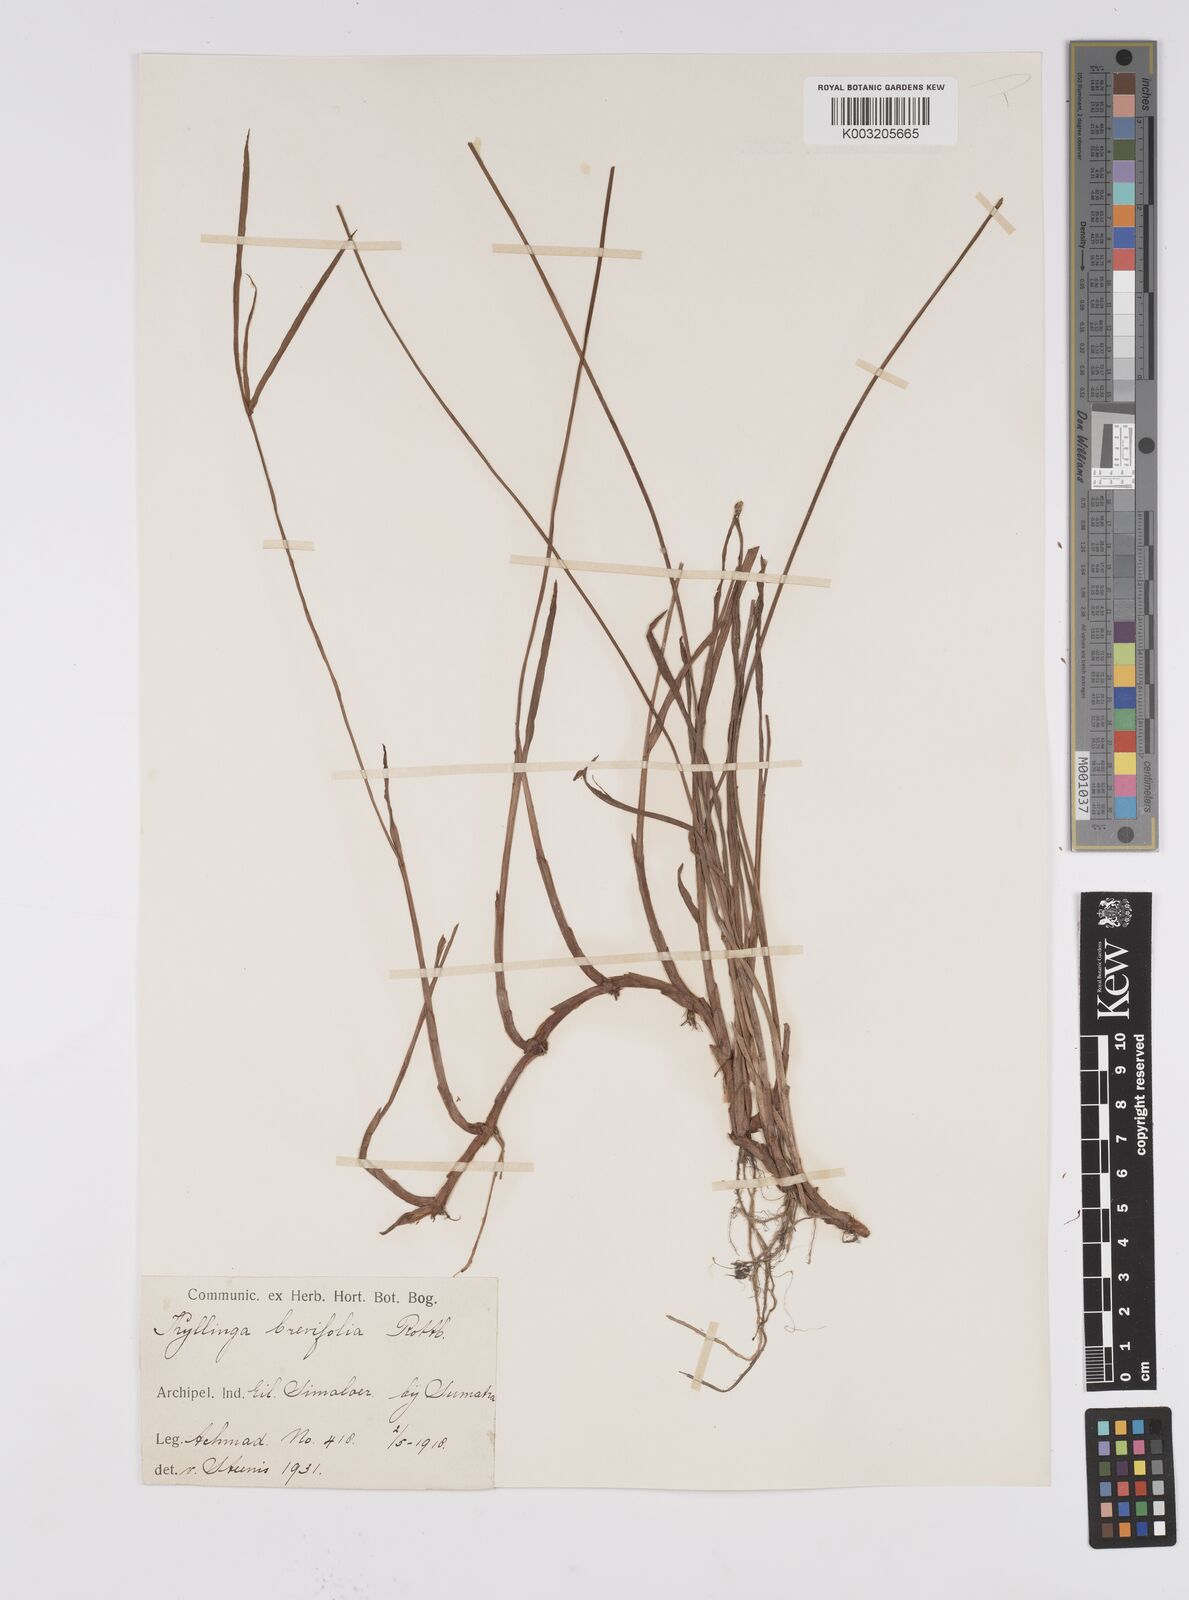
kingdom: Plantae
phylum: Tracheophyta
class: Liliopsida
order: Poales
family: Cyperaceae
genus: Cyperus
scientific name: Cyperus brevifolius
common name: Globe kyllinga
